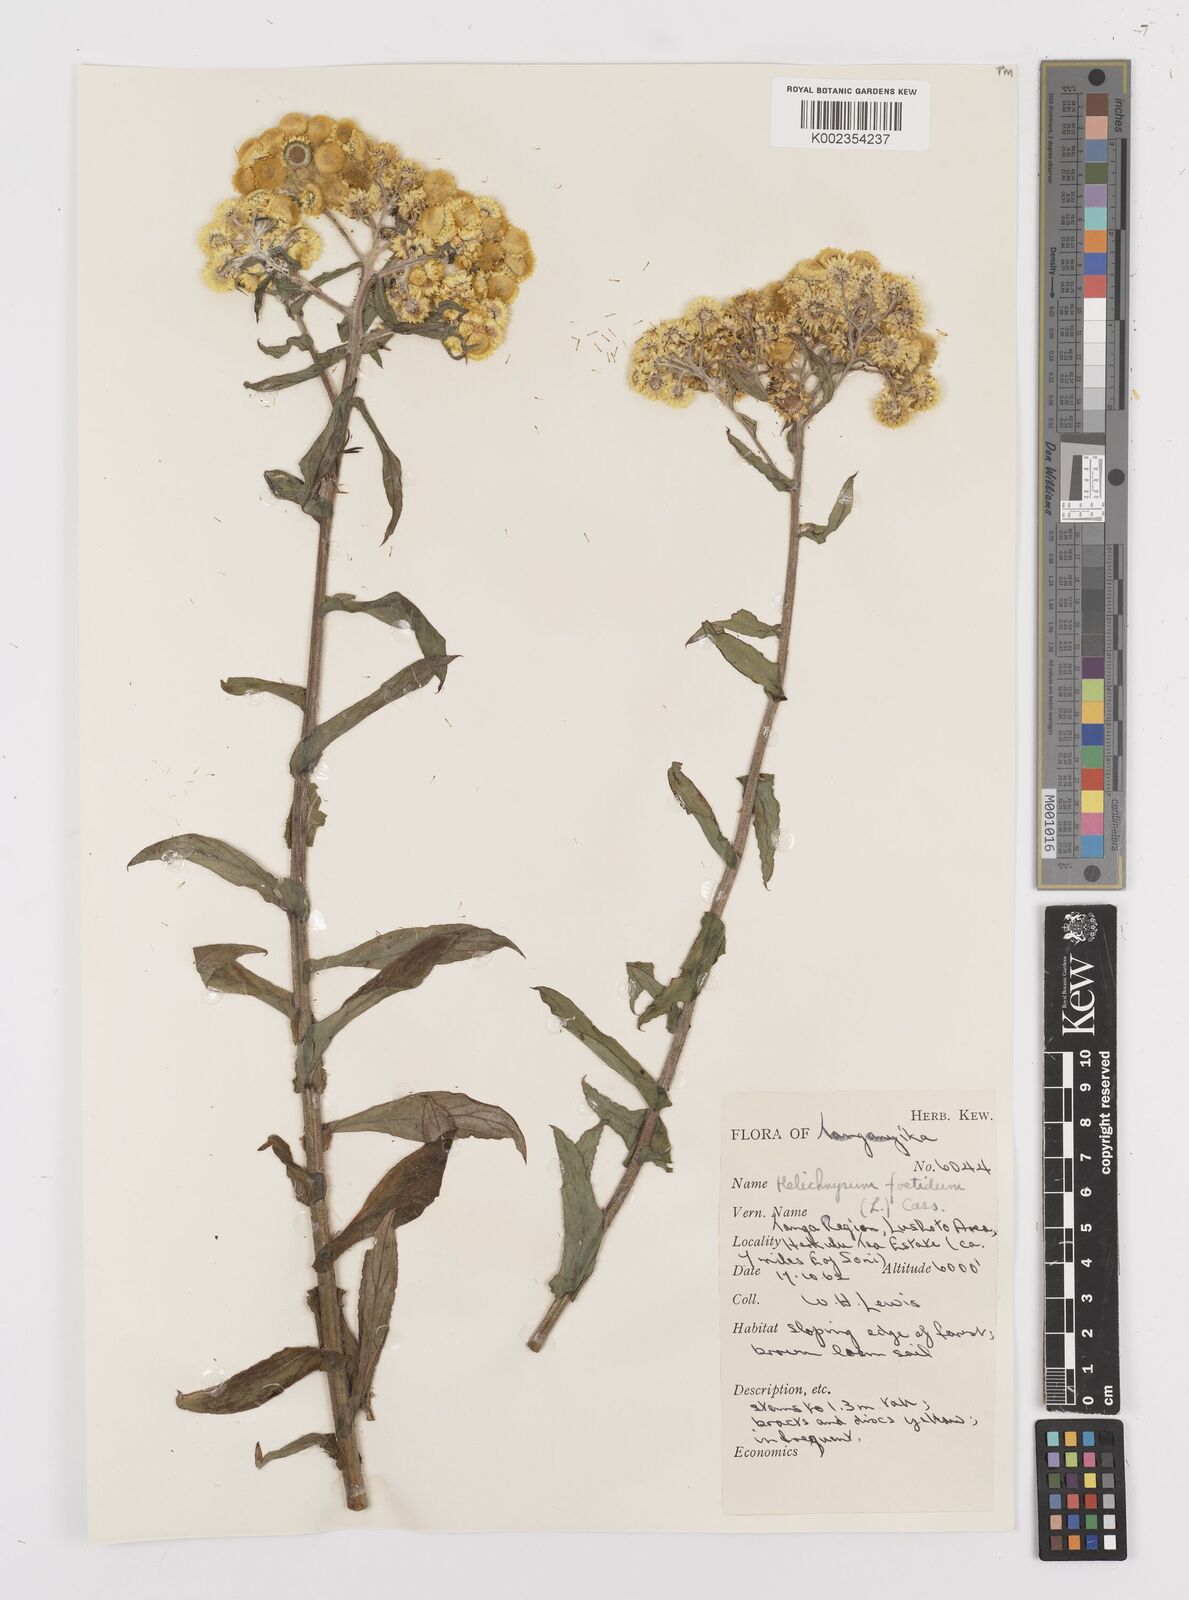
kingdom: Plantae
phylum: Tracheophyta
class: Magnoliopsida
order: Asterales
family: Asteraceae
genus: Helichrysum
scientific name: Helichrysum
